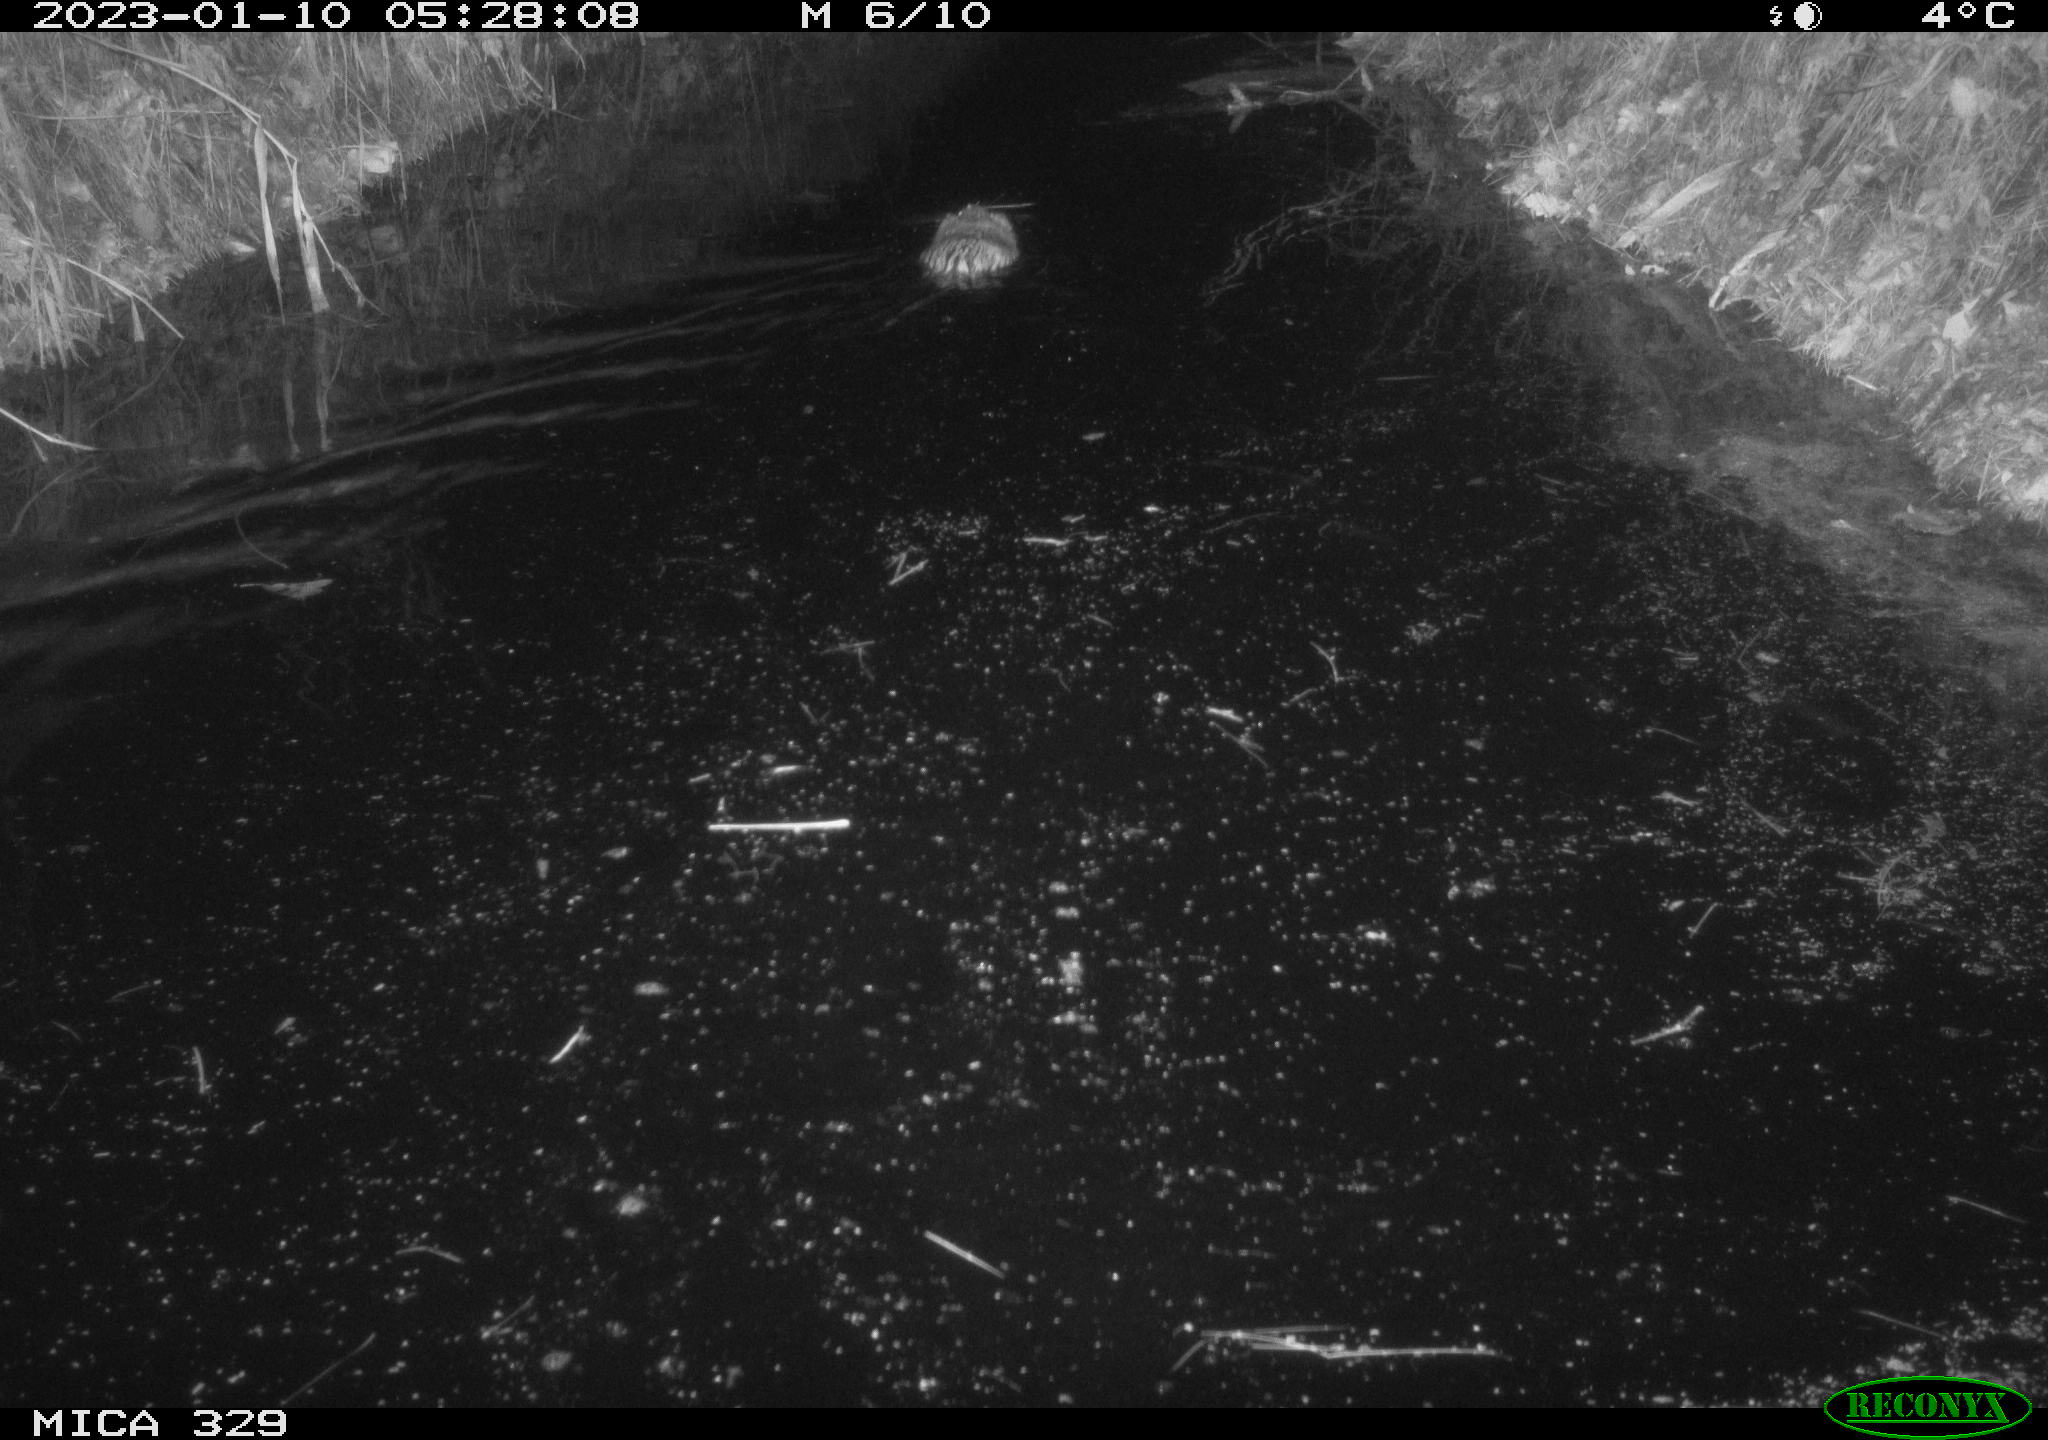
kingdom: Animalia
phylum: Chordata
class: Mammalia
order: Rodentia
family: Cricetidae
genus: Ondatra
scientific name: Ondatra zibethicus
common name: Muskrat
